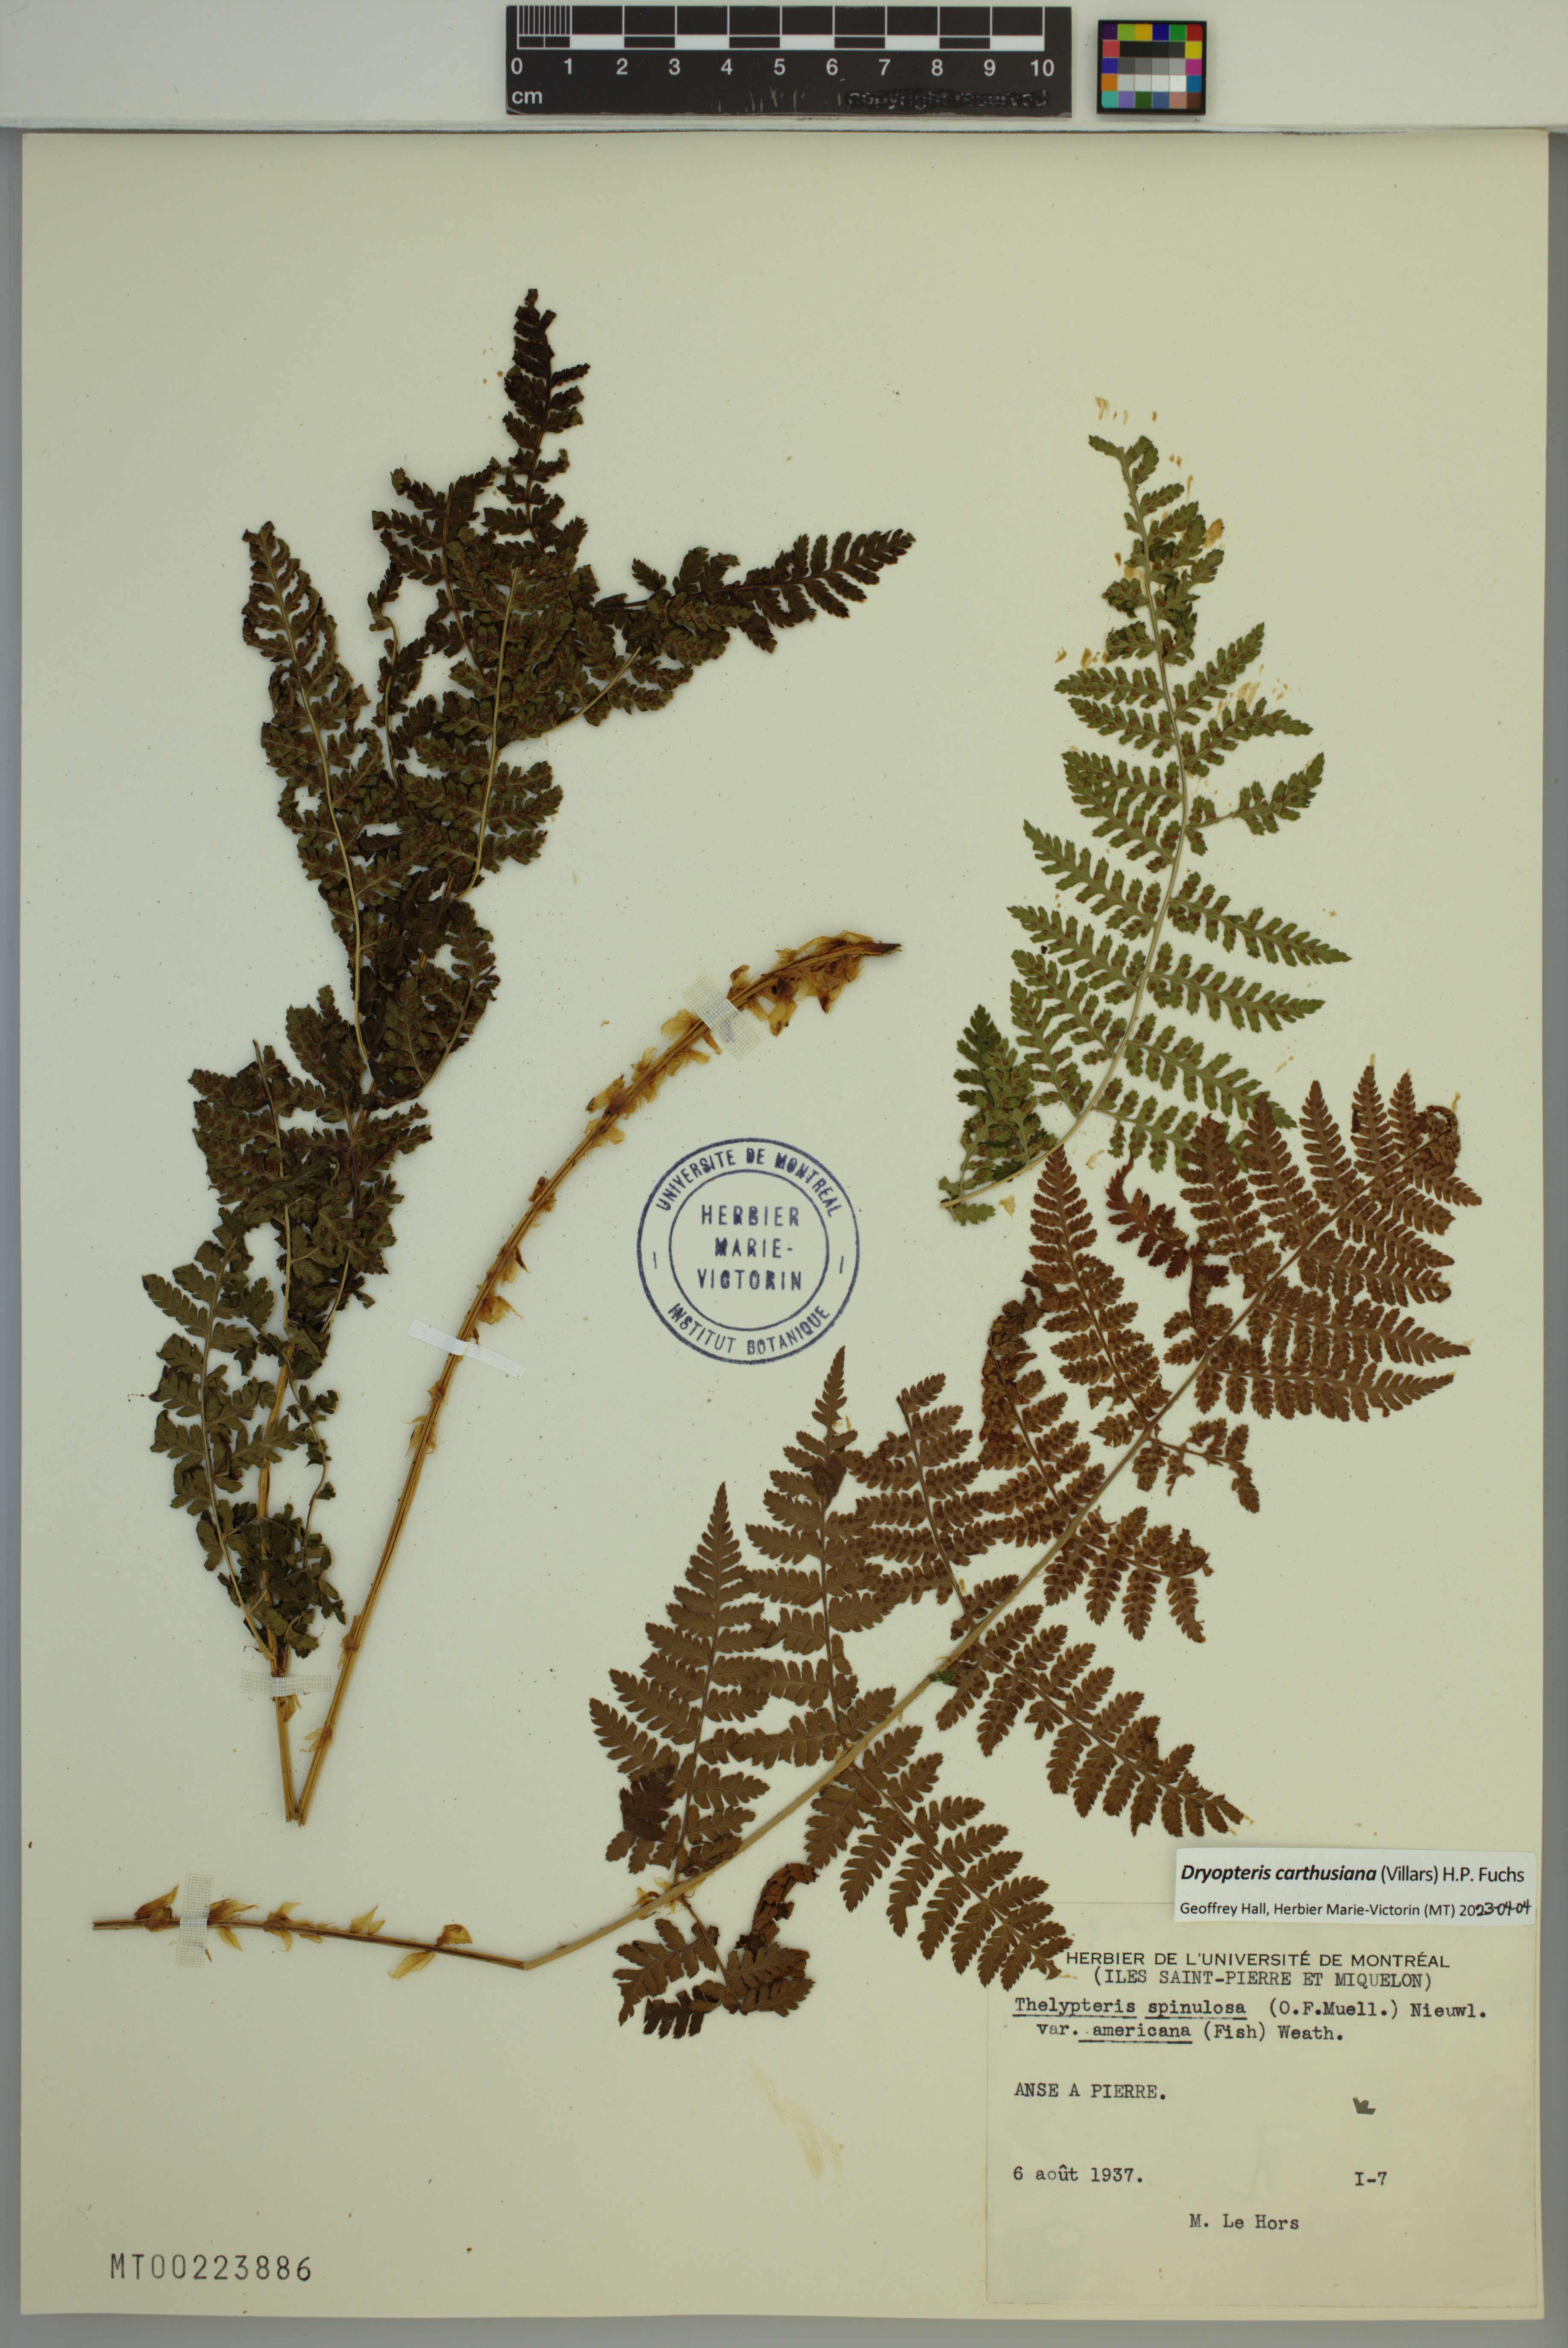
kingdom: Plantae
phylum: Tracheophyta
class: Polypodiopsida
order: Polypodiales
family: Dryopteridaceae
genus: Dryopteris
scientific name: Dryopteris carthusiana
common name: Narrow buckler-fern
